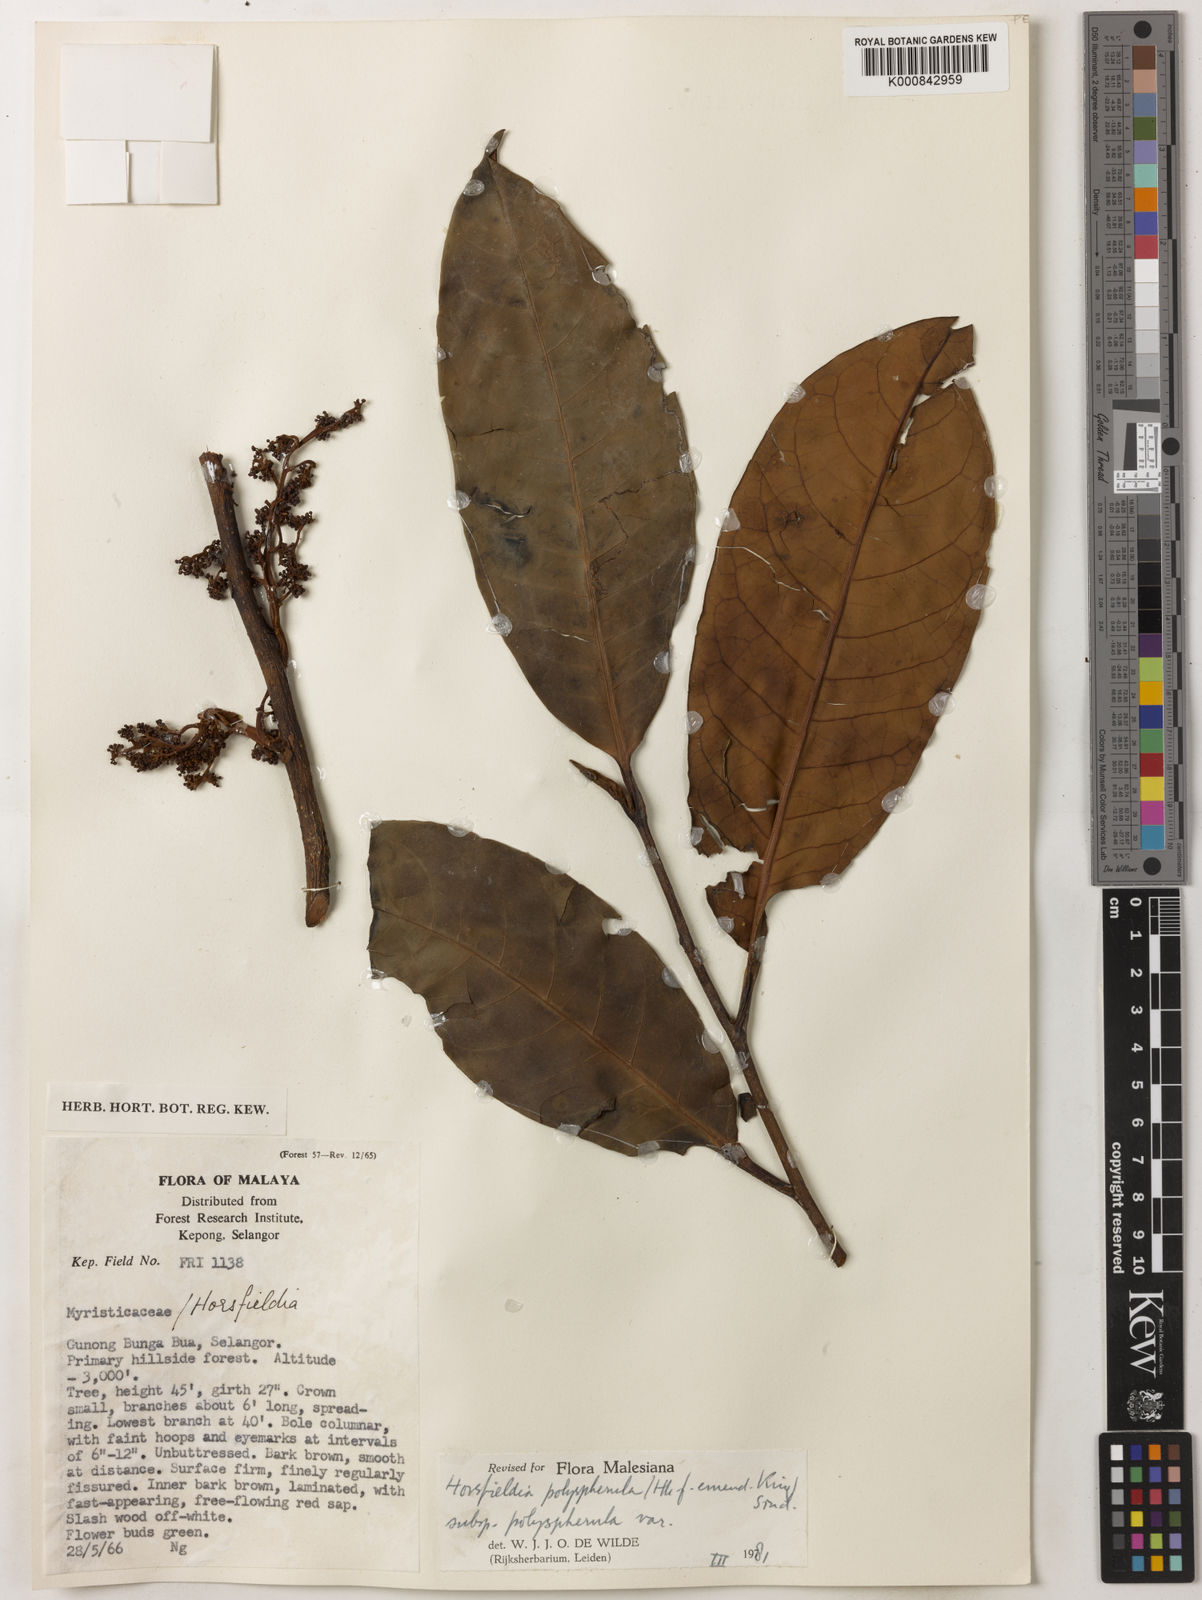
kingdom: Plantae
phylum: Tracheophyta
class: Magnoliopsida
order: Magnoliales
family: Myristicaceae
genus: Horsfieldia
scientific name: Horsfieldia
